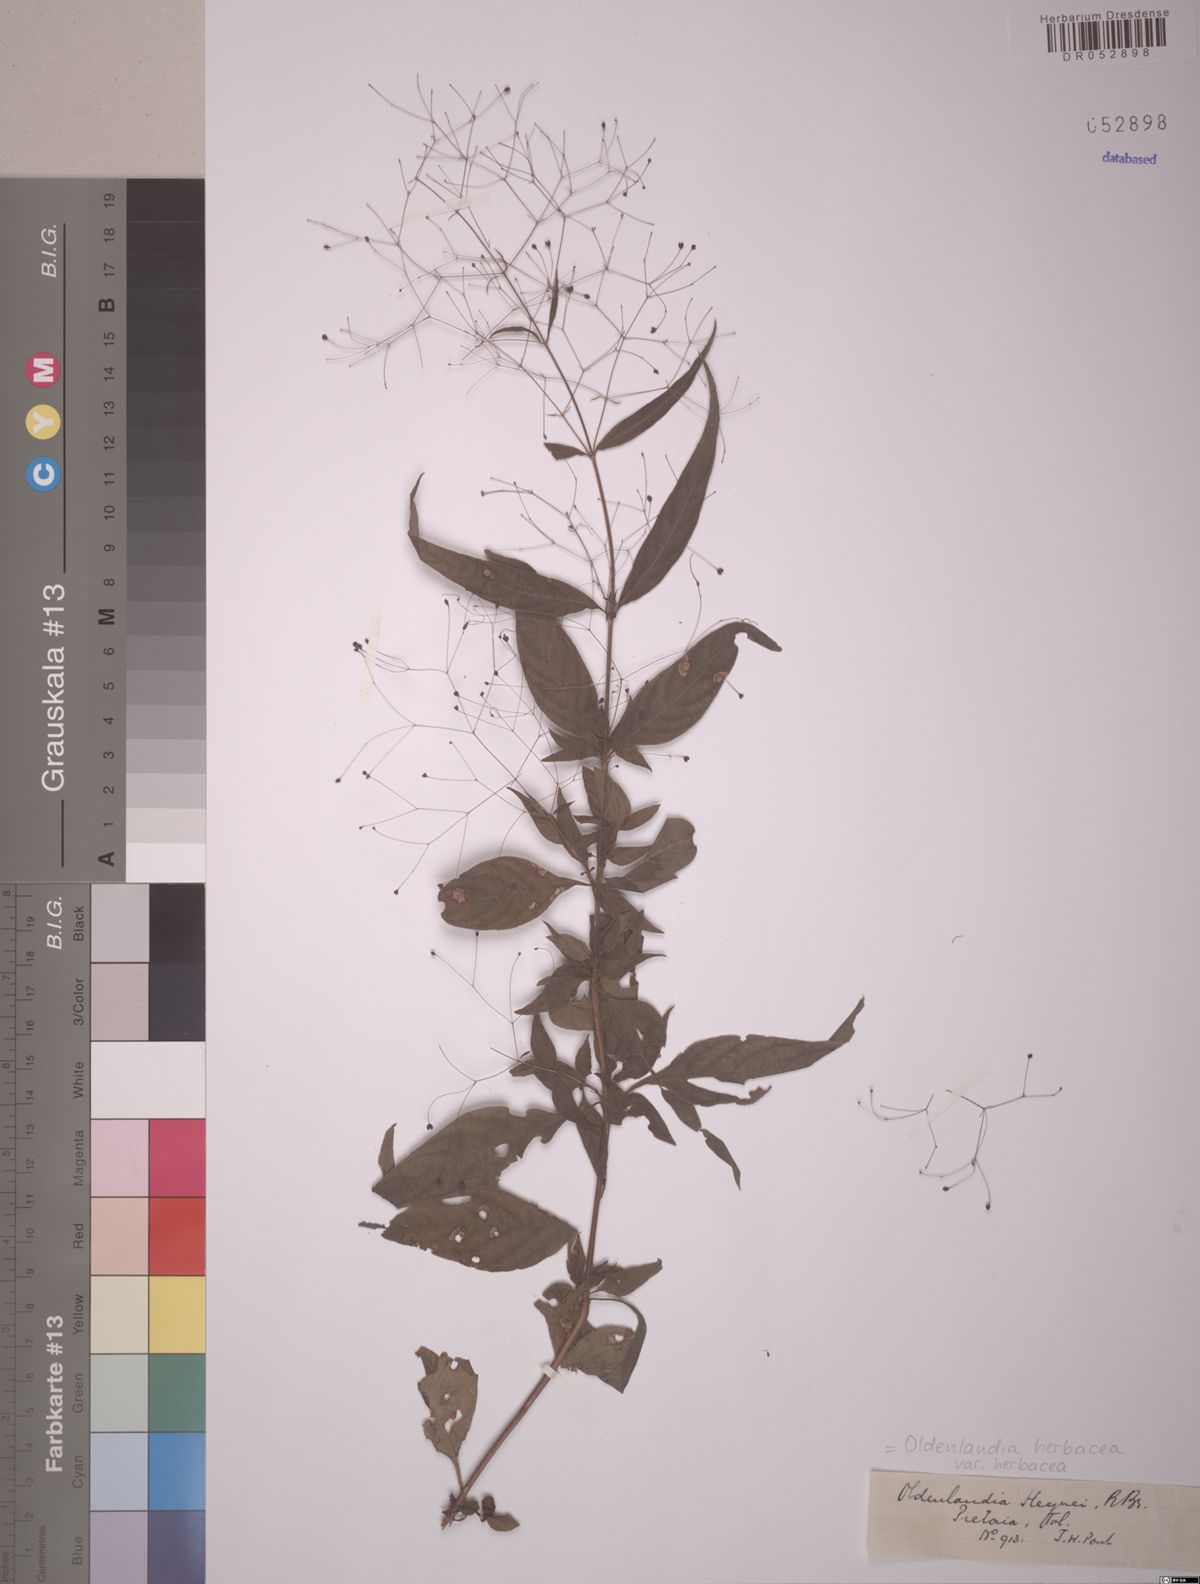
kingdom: Plantae
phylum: Tracheophyta
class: Magnoliopsida
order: Gentianales
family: Rubiaceae
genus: Oldenlandia
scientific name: Oldenlandia herbacea
